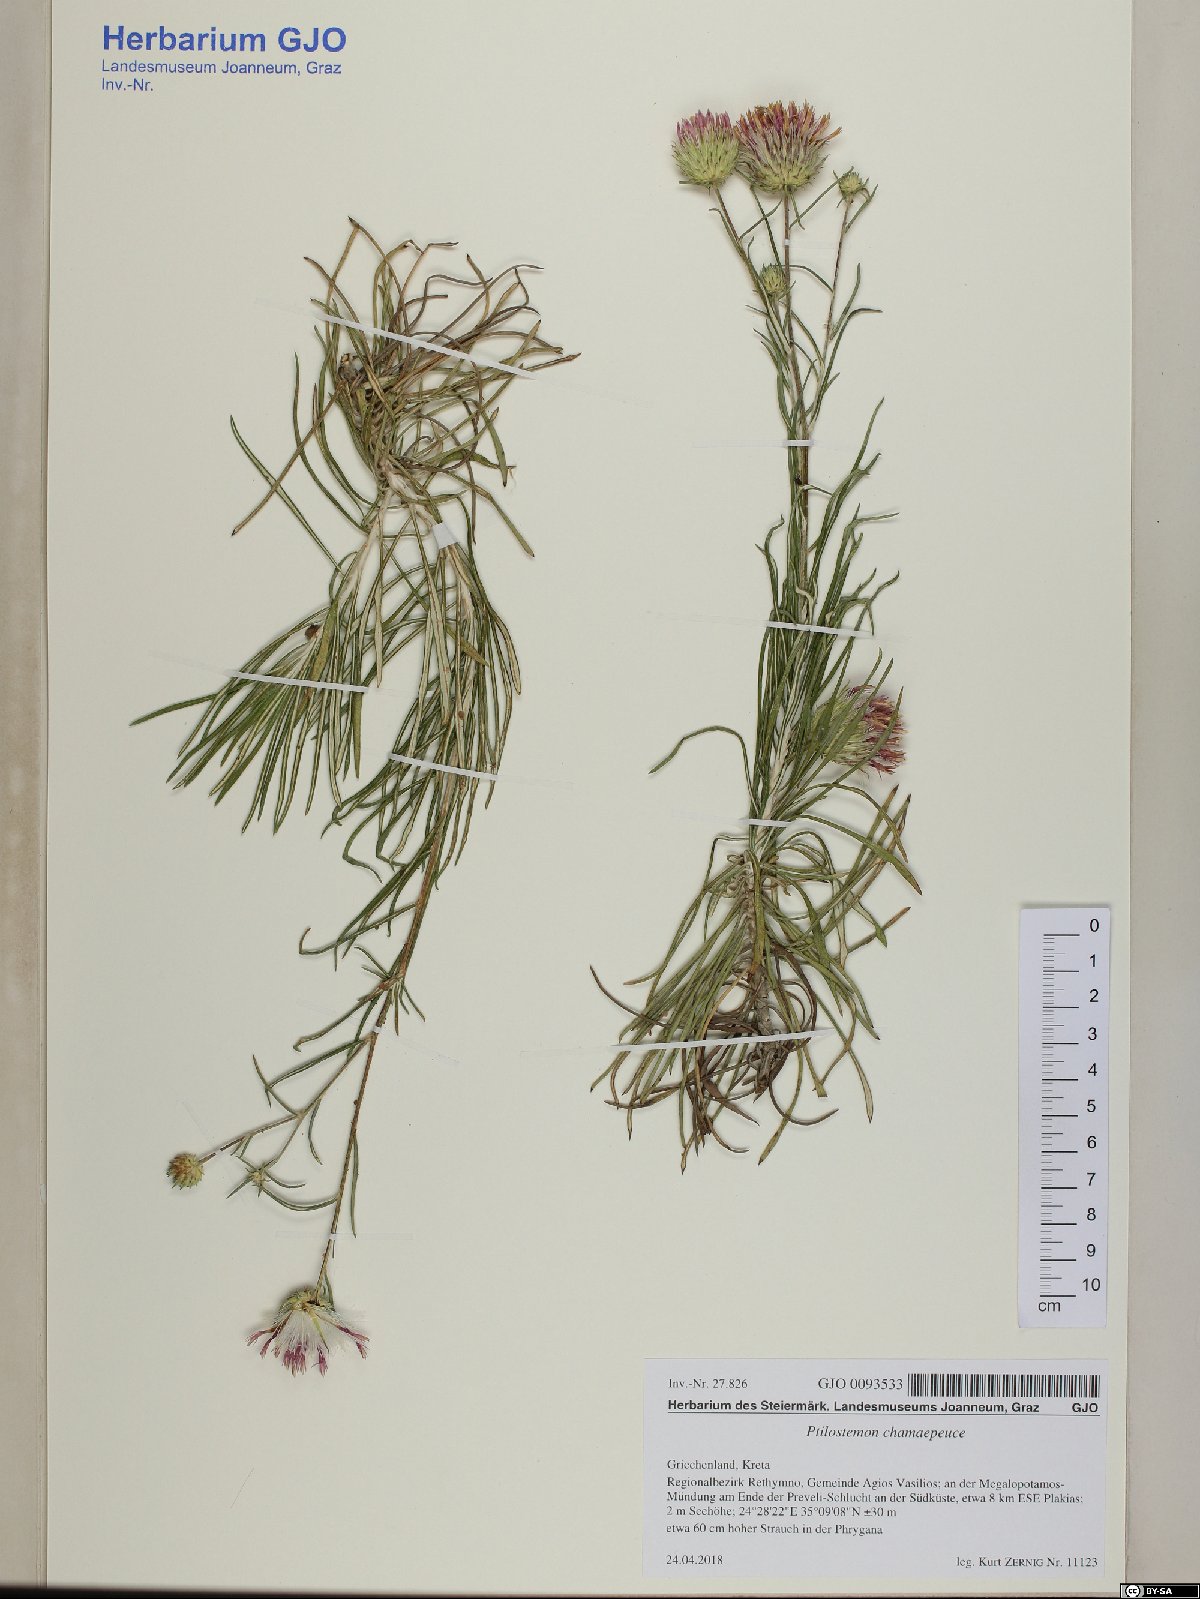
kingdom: Plantae
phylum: Tracheophyta
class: Magnoliopsida
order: Asterales
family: Asteraceae
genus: Ptilostemon
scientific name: Ptilostemon chamaepeuce
